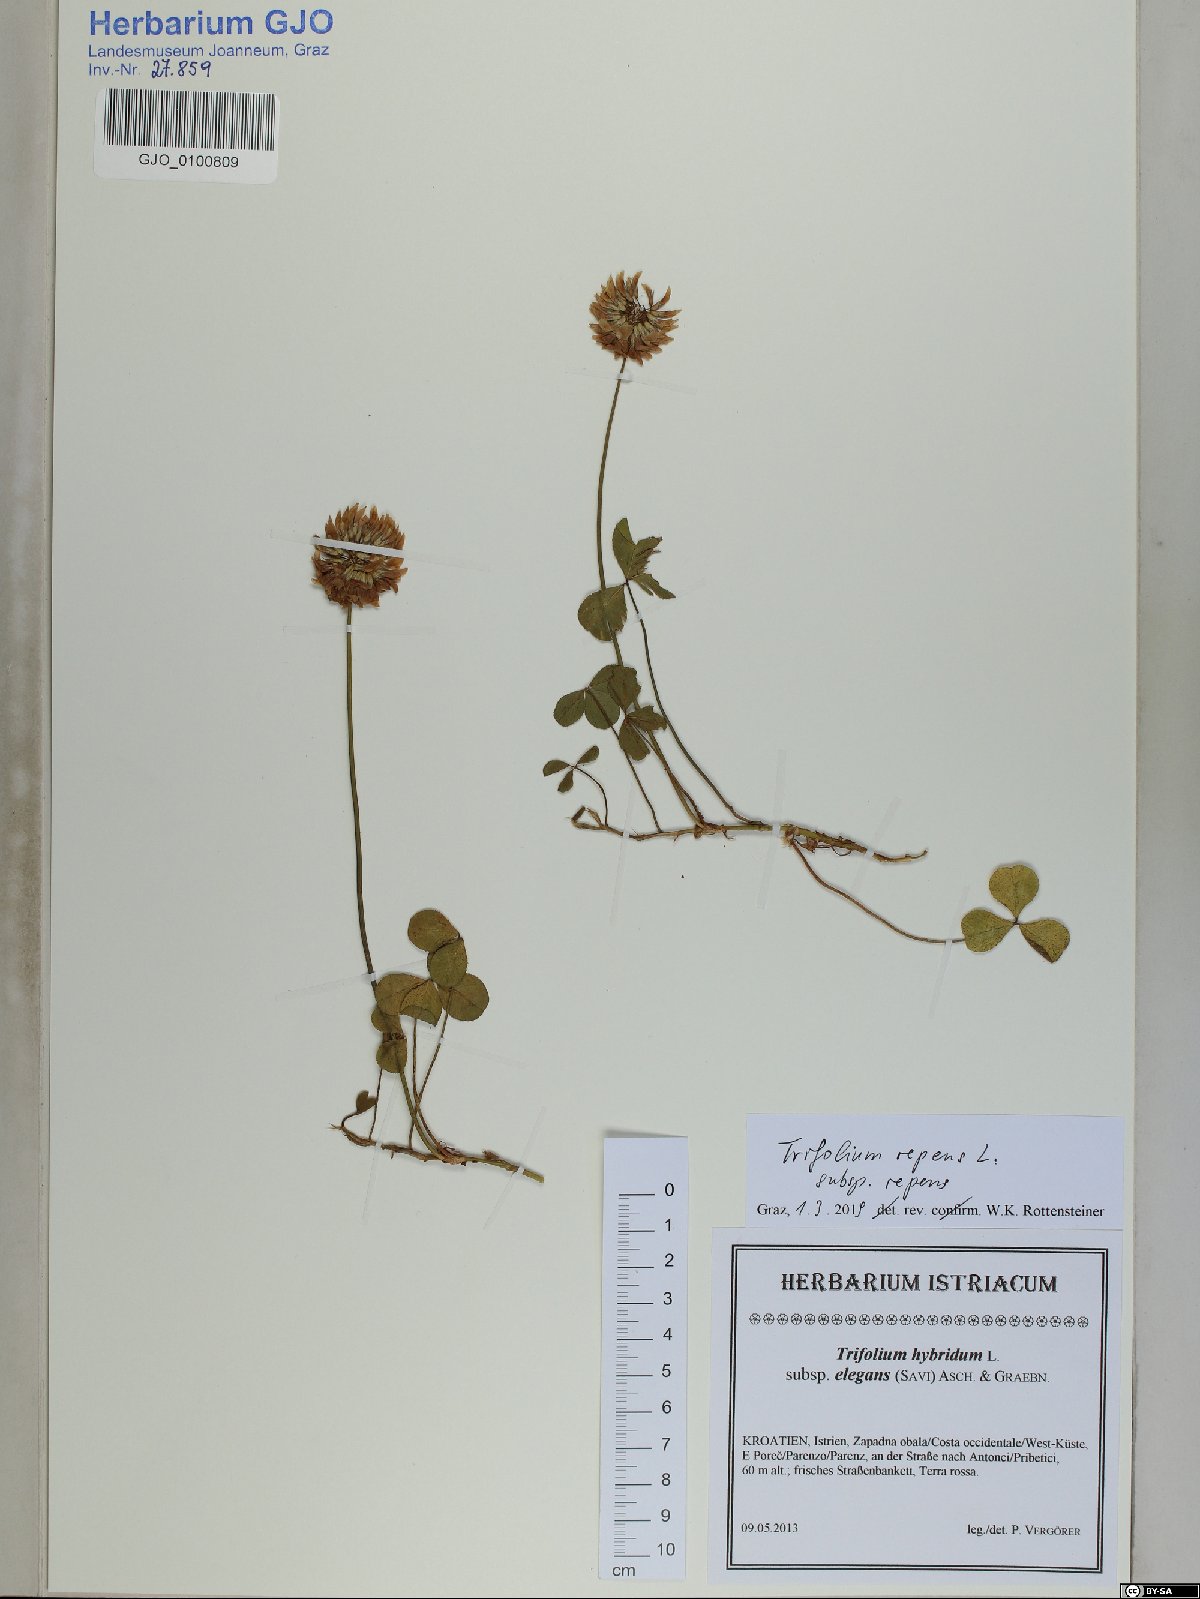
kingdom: Plantae
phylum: Tracheophyta
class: Magnoliopsida
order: Fabales
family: Fabaceae
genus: Trifolium
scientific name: Trifolium repens
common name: White clover
